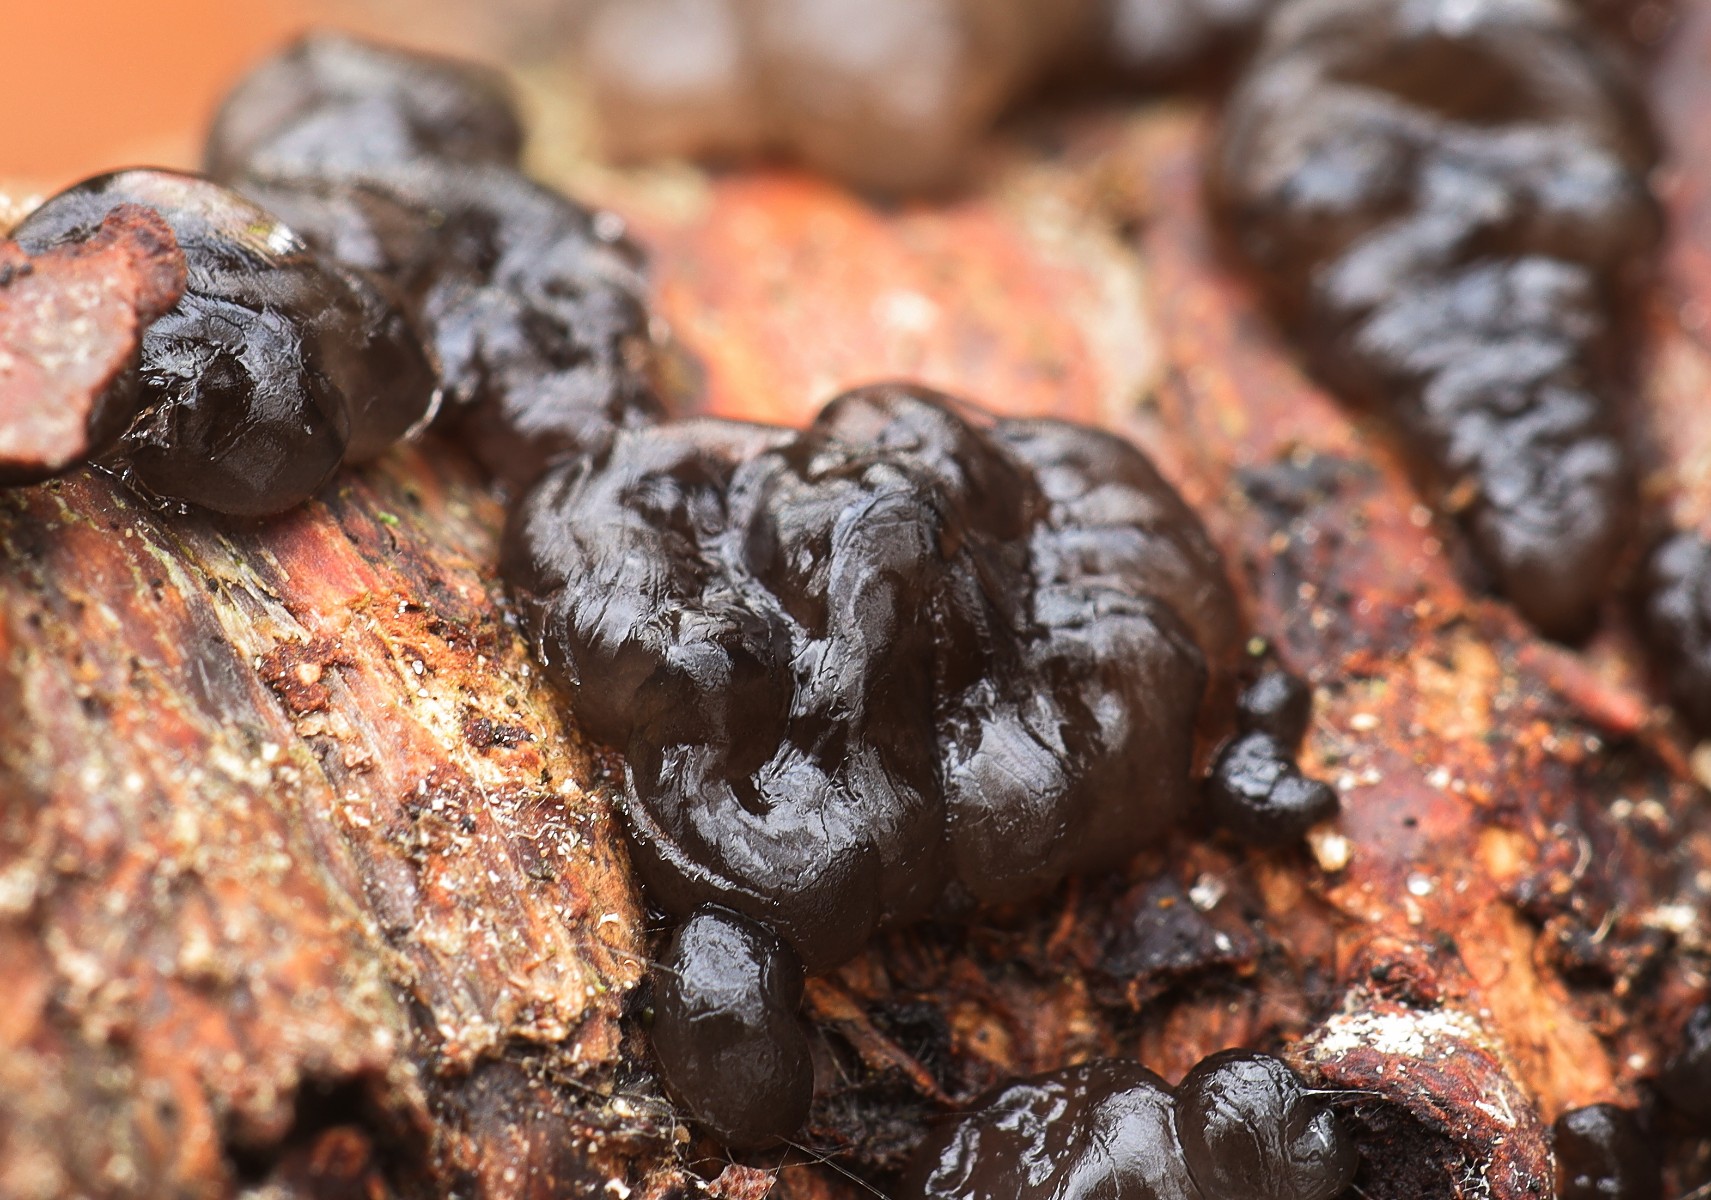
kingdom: Fungi
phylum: Basidiomycota
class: Agaricomycetes
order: Auriculariales
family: Auriculariaceae
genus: Exidia
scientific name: Exidia nigricans
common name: almindelig bævretop
